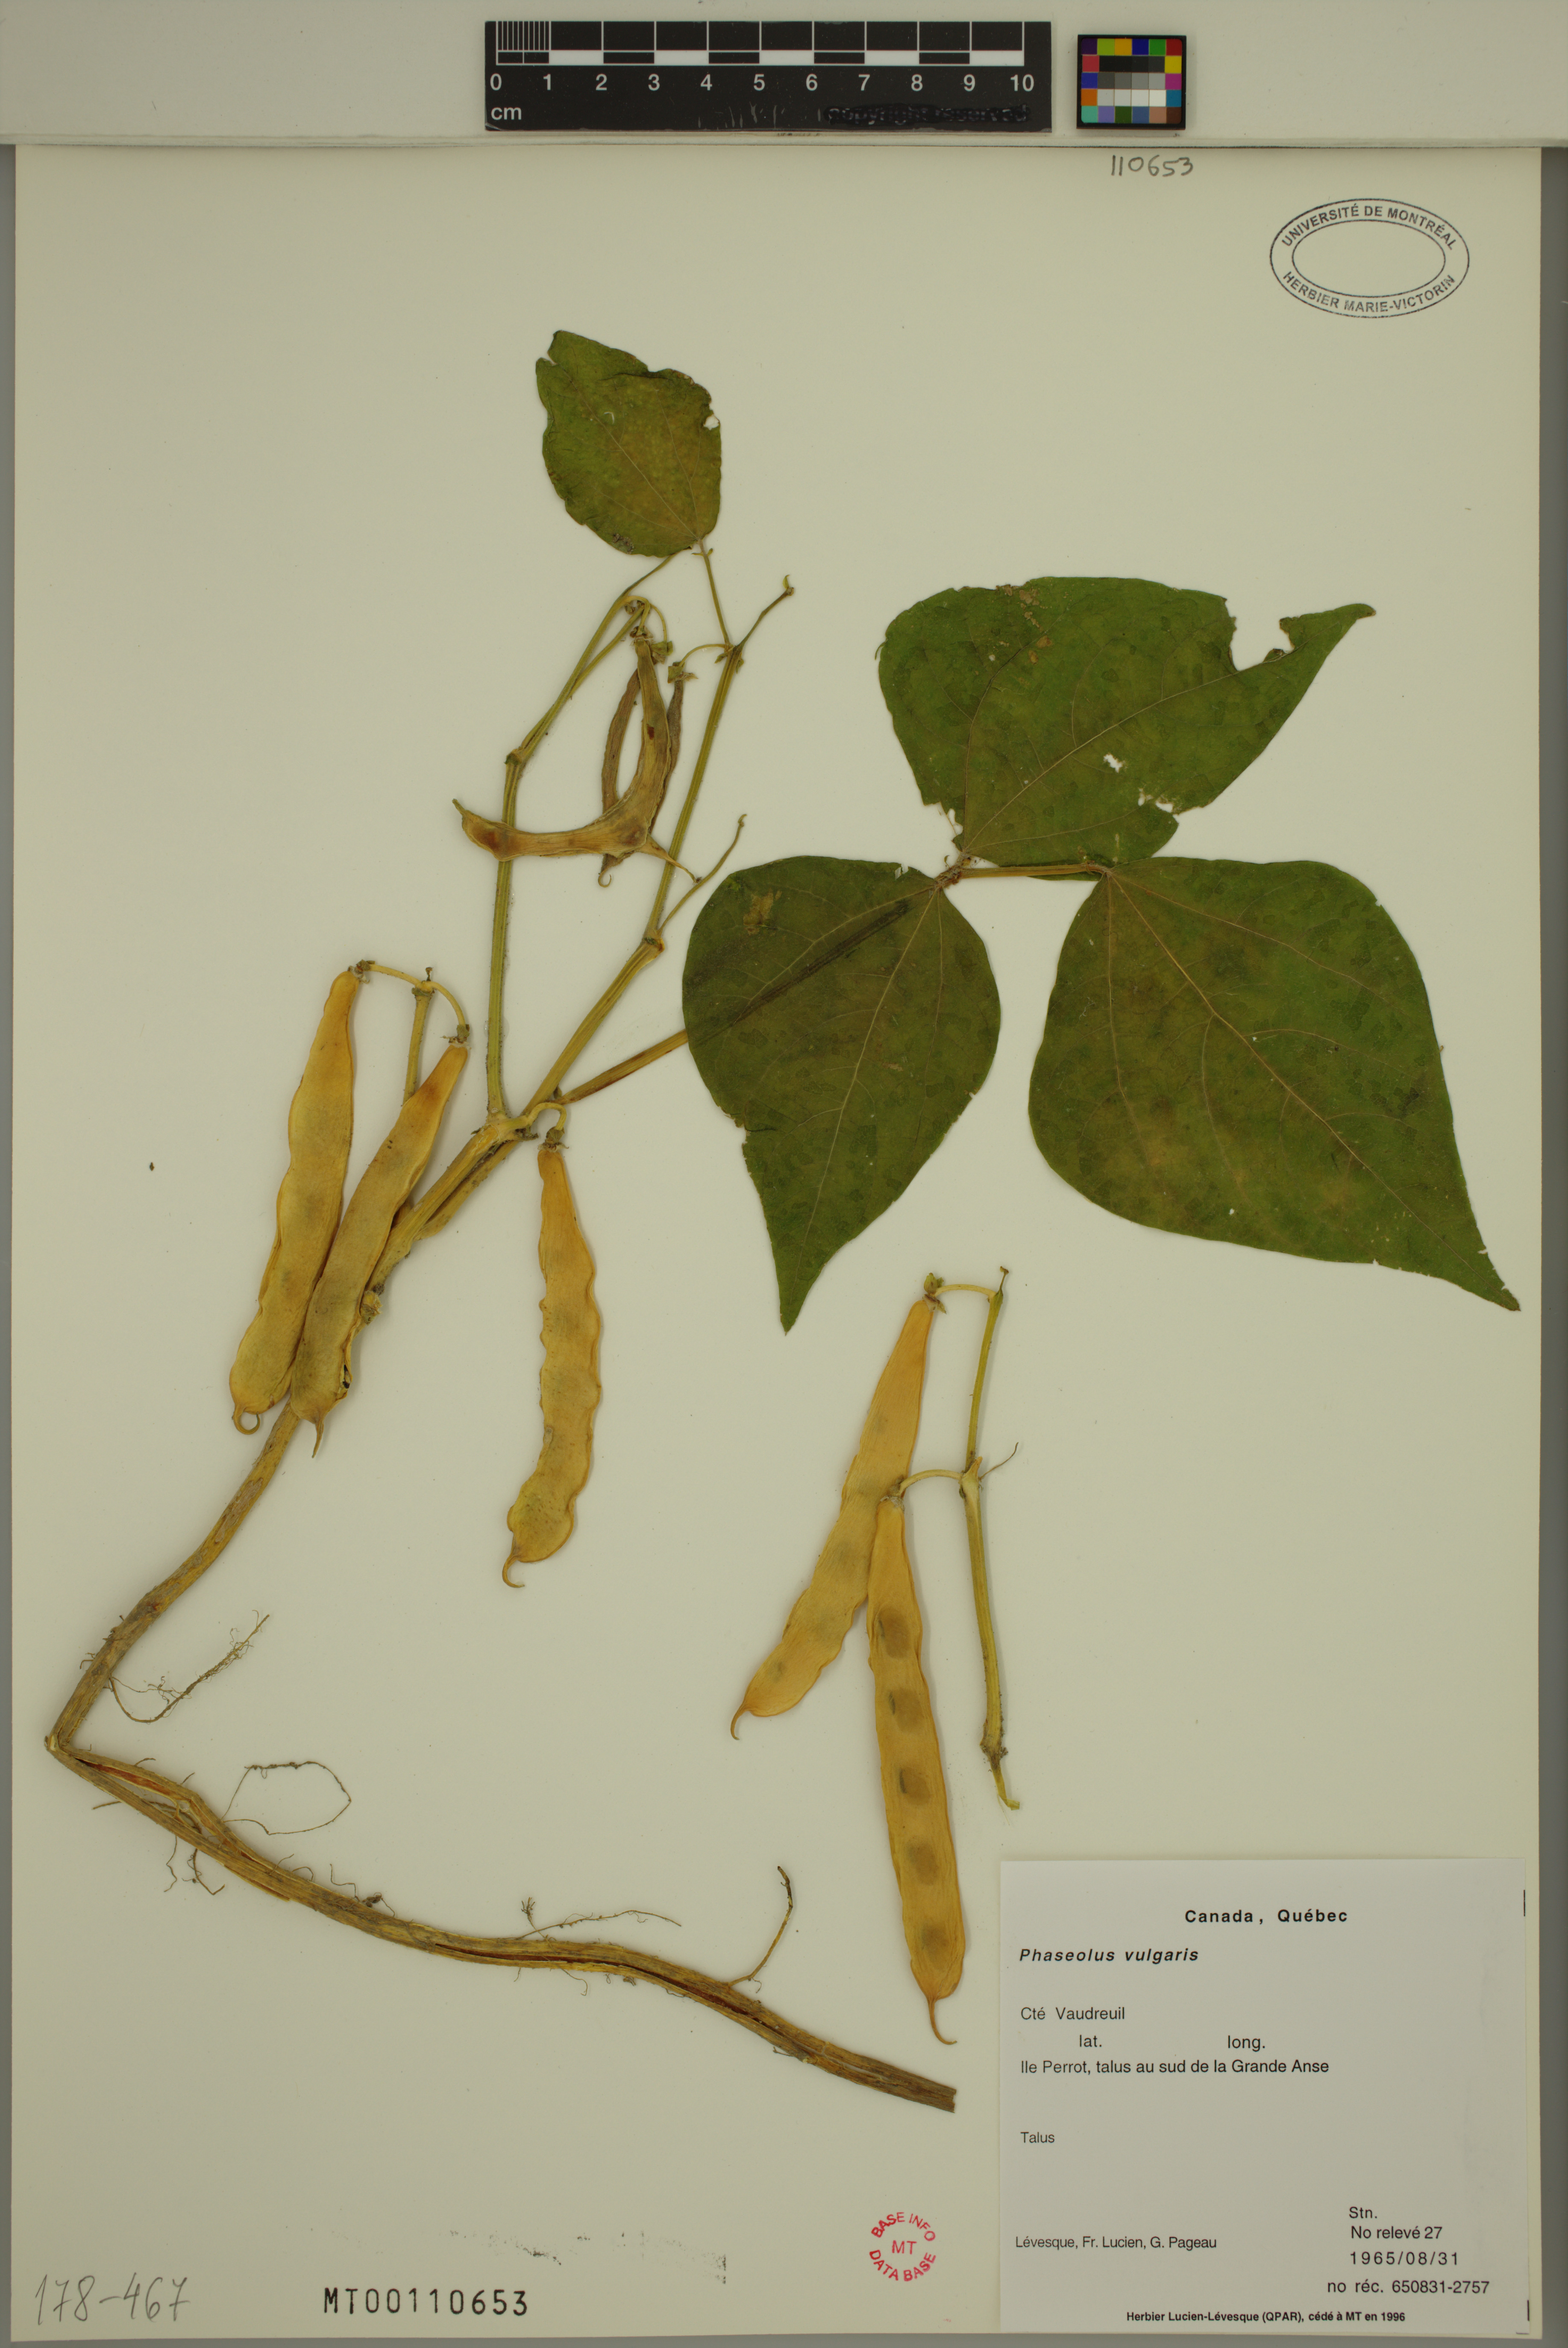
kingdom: Plantae
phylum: Tracheophyta
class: Magnoliopsida
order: Fabales
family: Fabaceae
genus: Phaseolus
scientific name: Phaseolus vulgaris
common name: Bean
